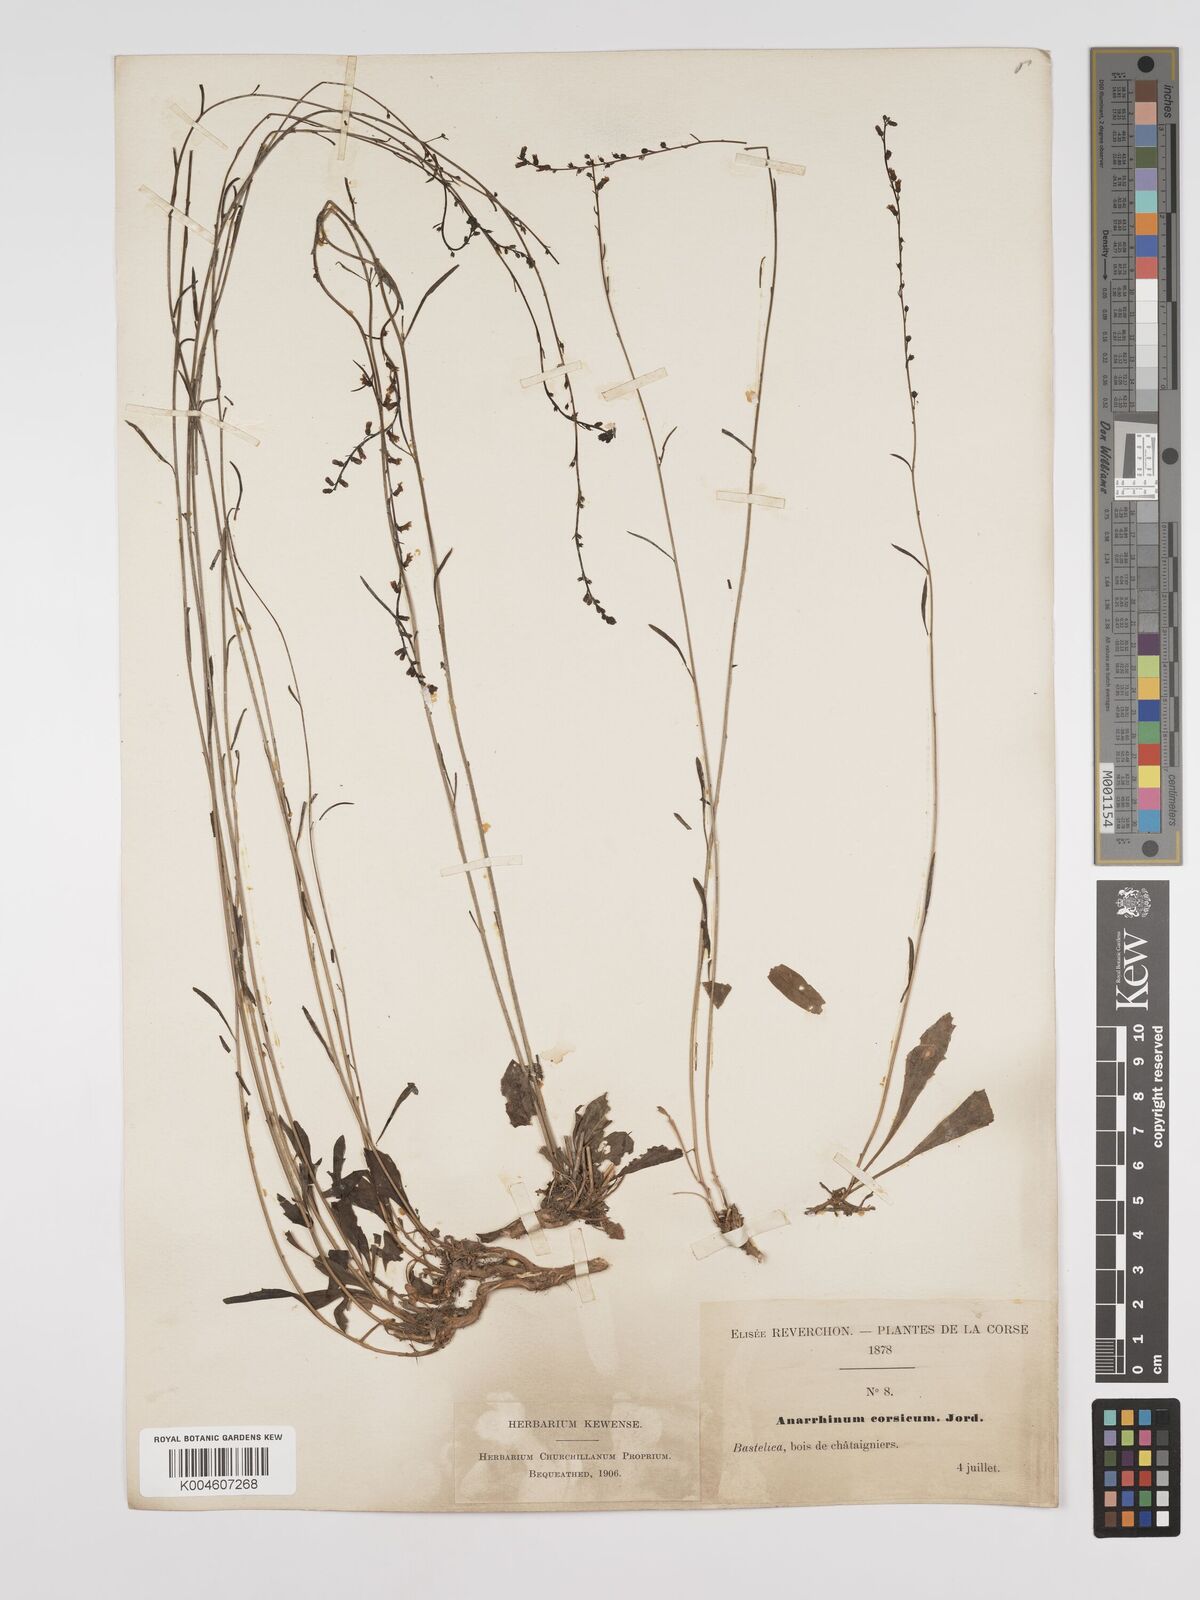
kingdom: Plantae
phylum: Tracheophyta
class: Magnoliopsida
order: Lamiales
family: Plantaginaceae
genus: Anarrhinum
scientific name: Anarrhinum corsicum
